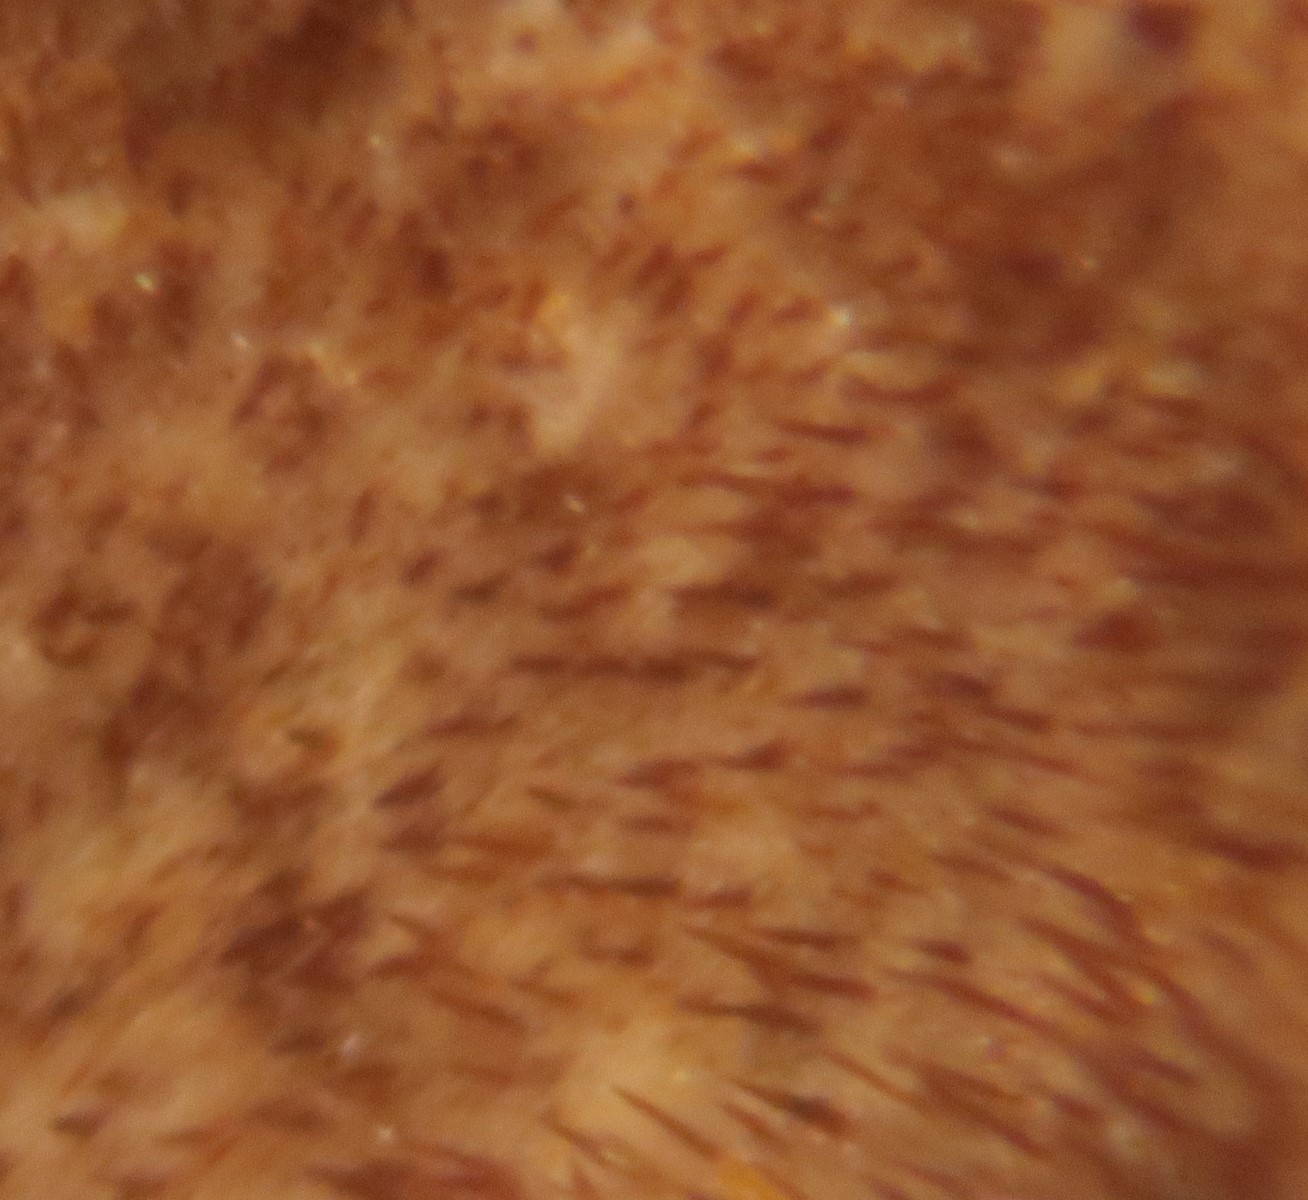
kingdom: Fungi
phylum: Basidiomycota
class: Agaricomycetes
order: Hymenochaetales
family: Hymenochaetaceae
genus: Hydnoporia
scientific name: Hydnoporia tabacina
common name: tobaksbrun ruslædersvamp
